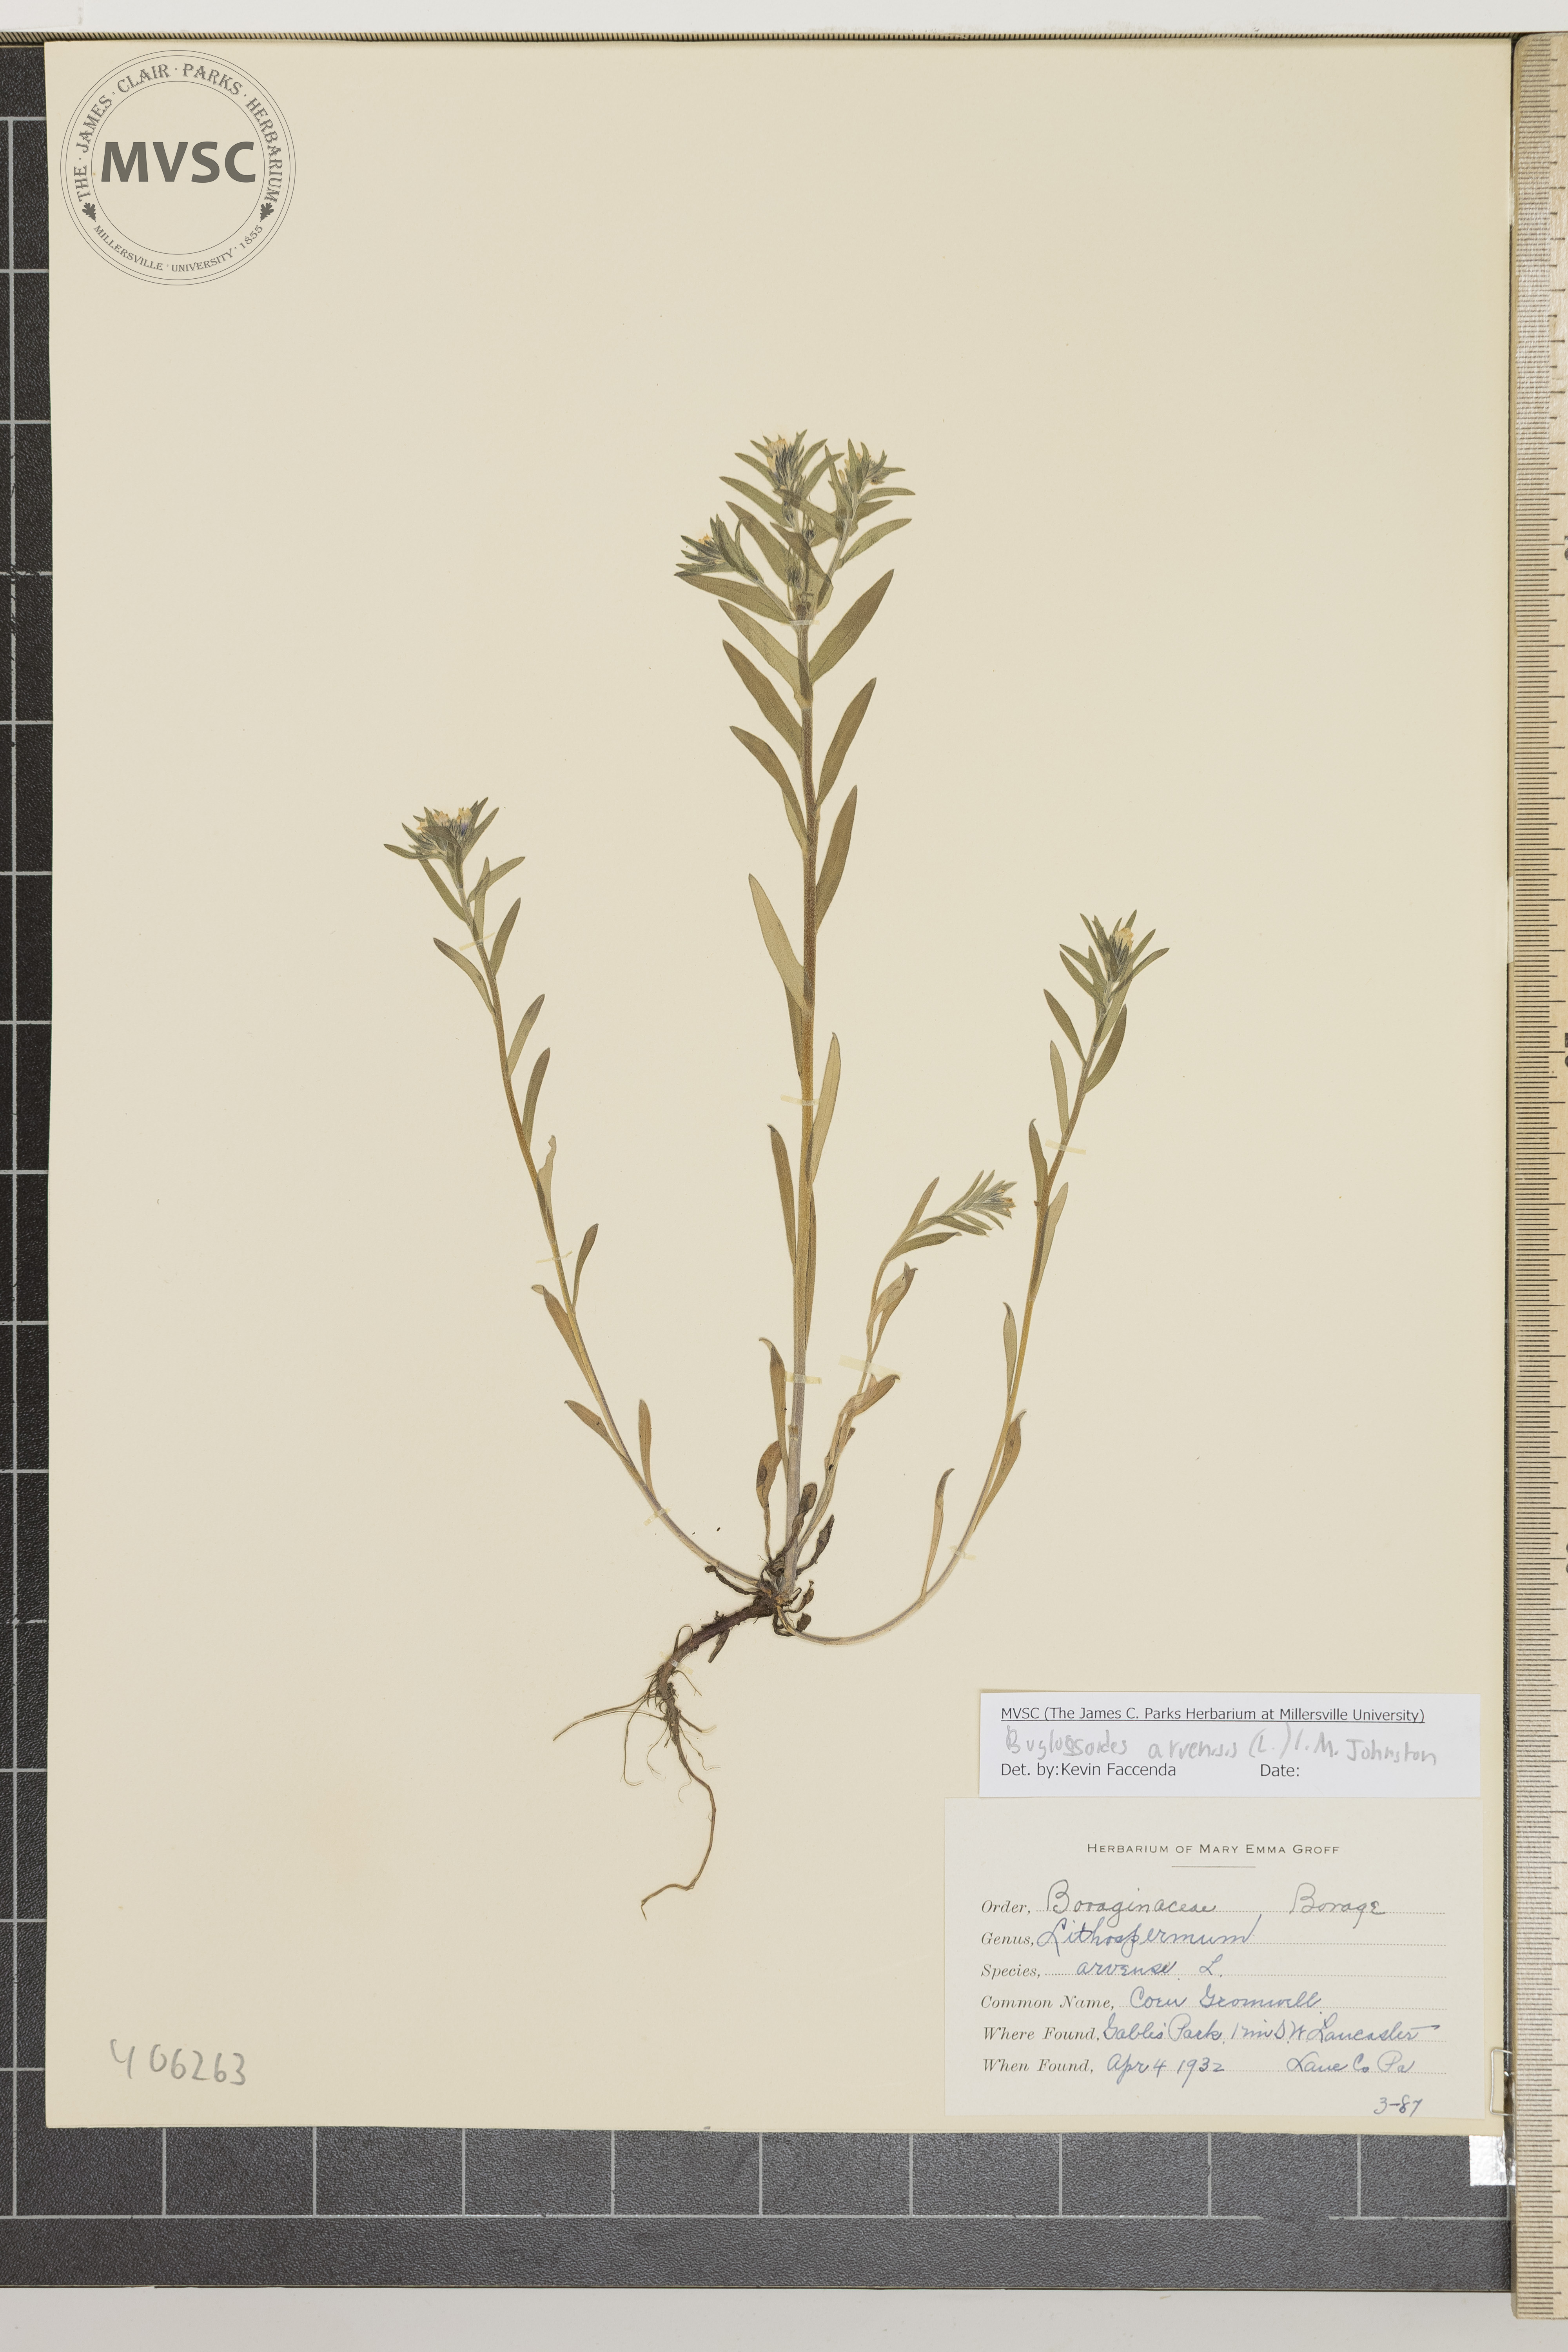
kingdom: Plantae
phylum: Tracheophyta
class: Magnoliopsida
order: Boraginales
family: Boraginaceae
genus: Buglossoides
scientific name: Buglossoides arvensis
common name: Corn Gromwell
